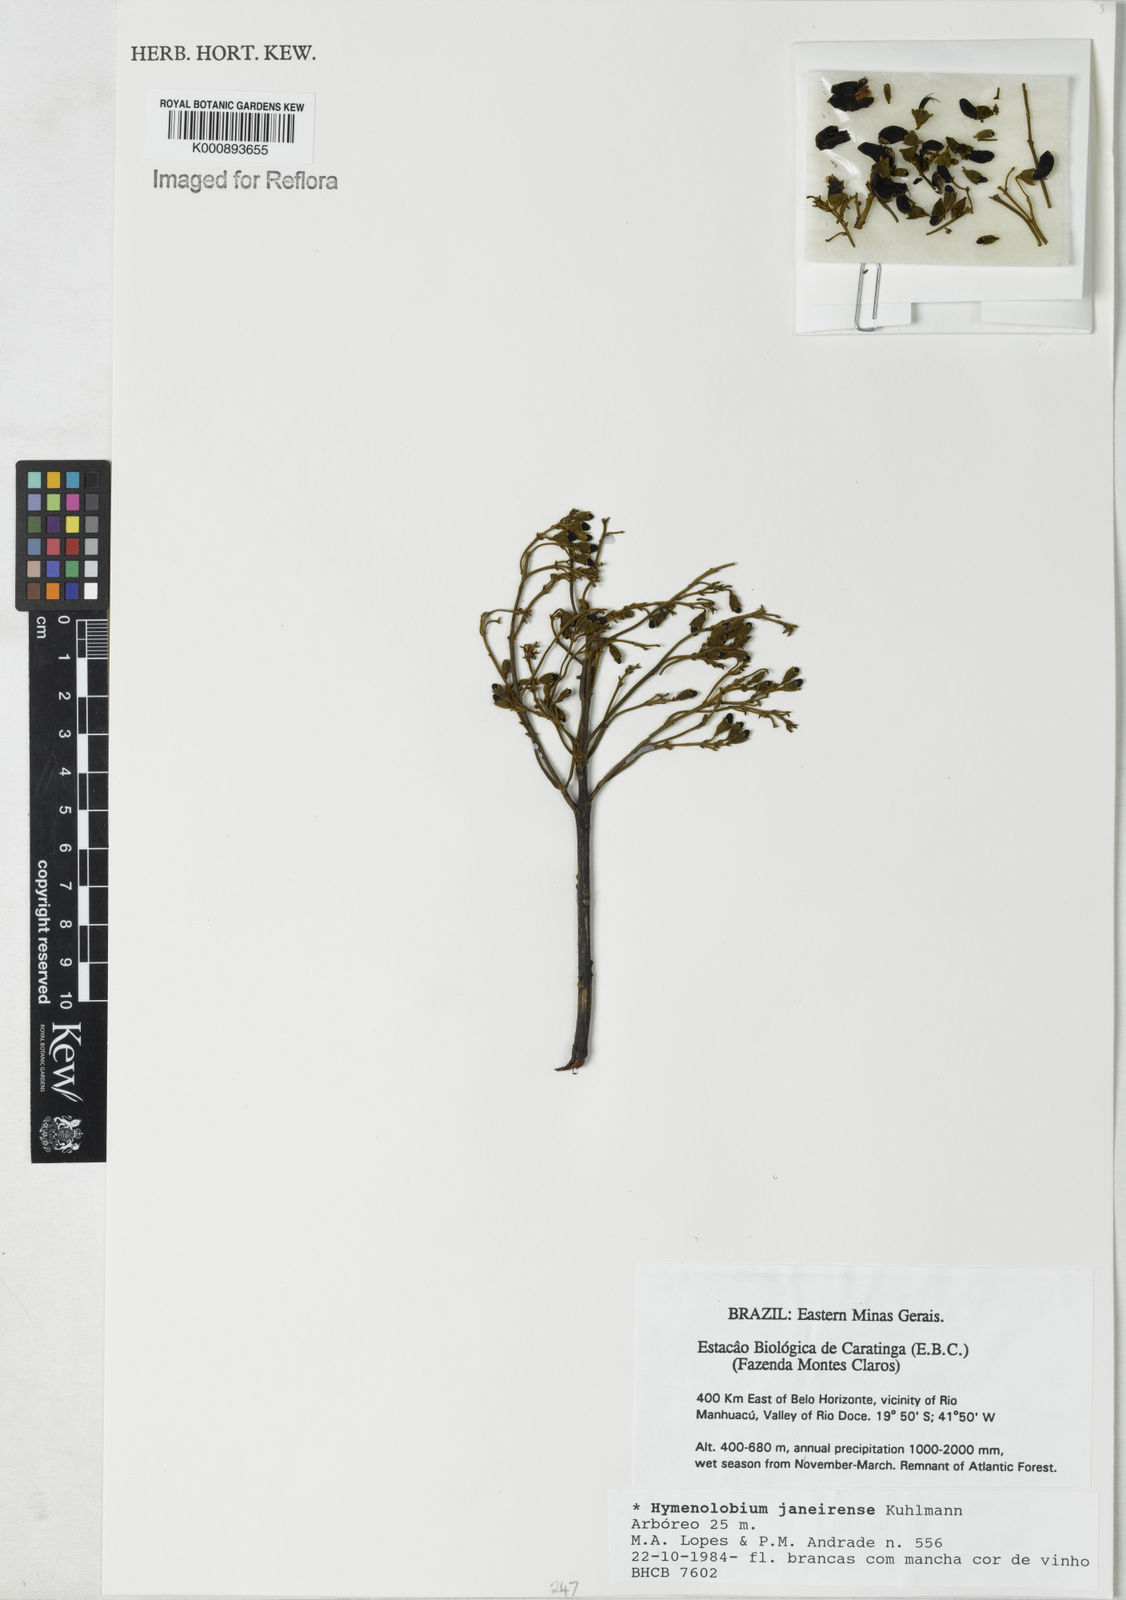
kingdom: Plantae
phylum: Tracheophyta
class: Magnoliopsida
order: Fabales
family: Fabaceae
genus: Hymenolobium
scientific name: Hymenolobium janeirense
